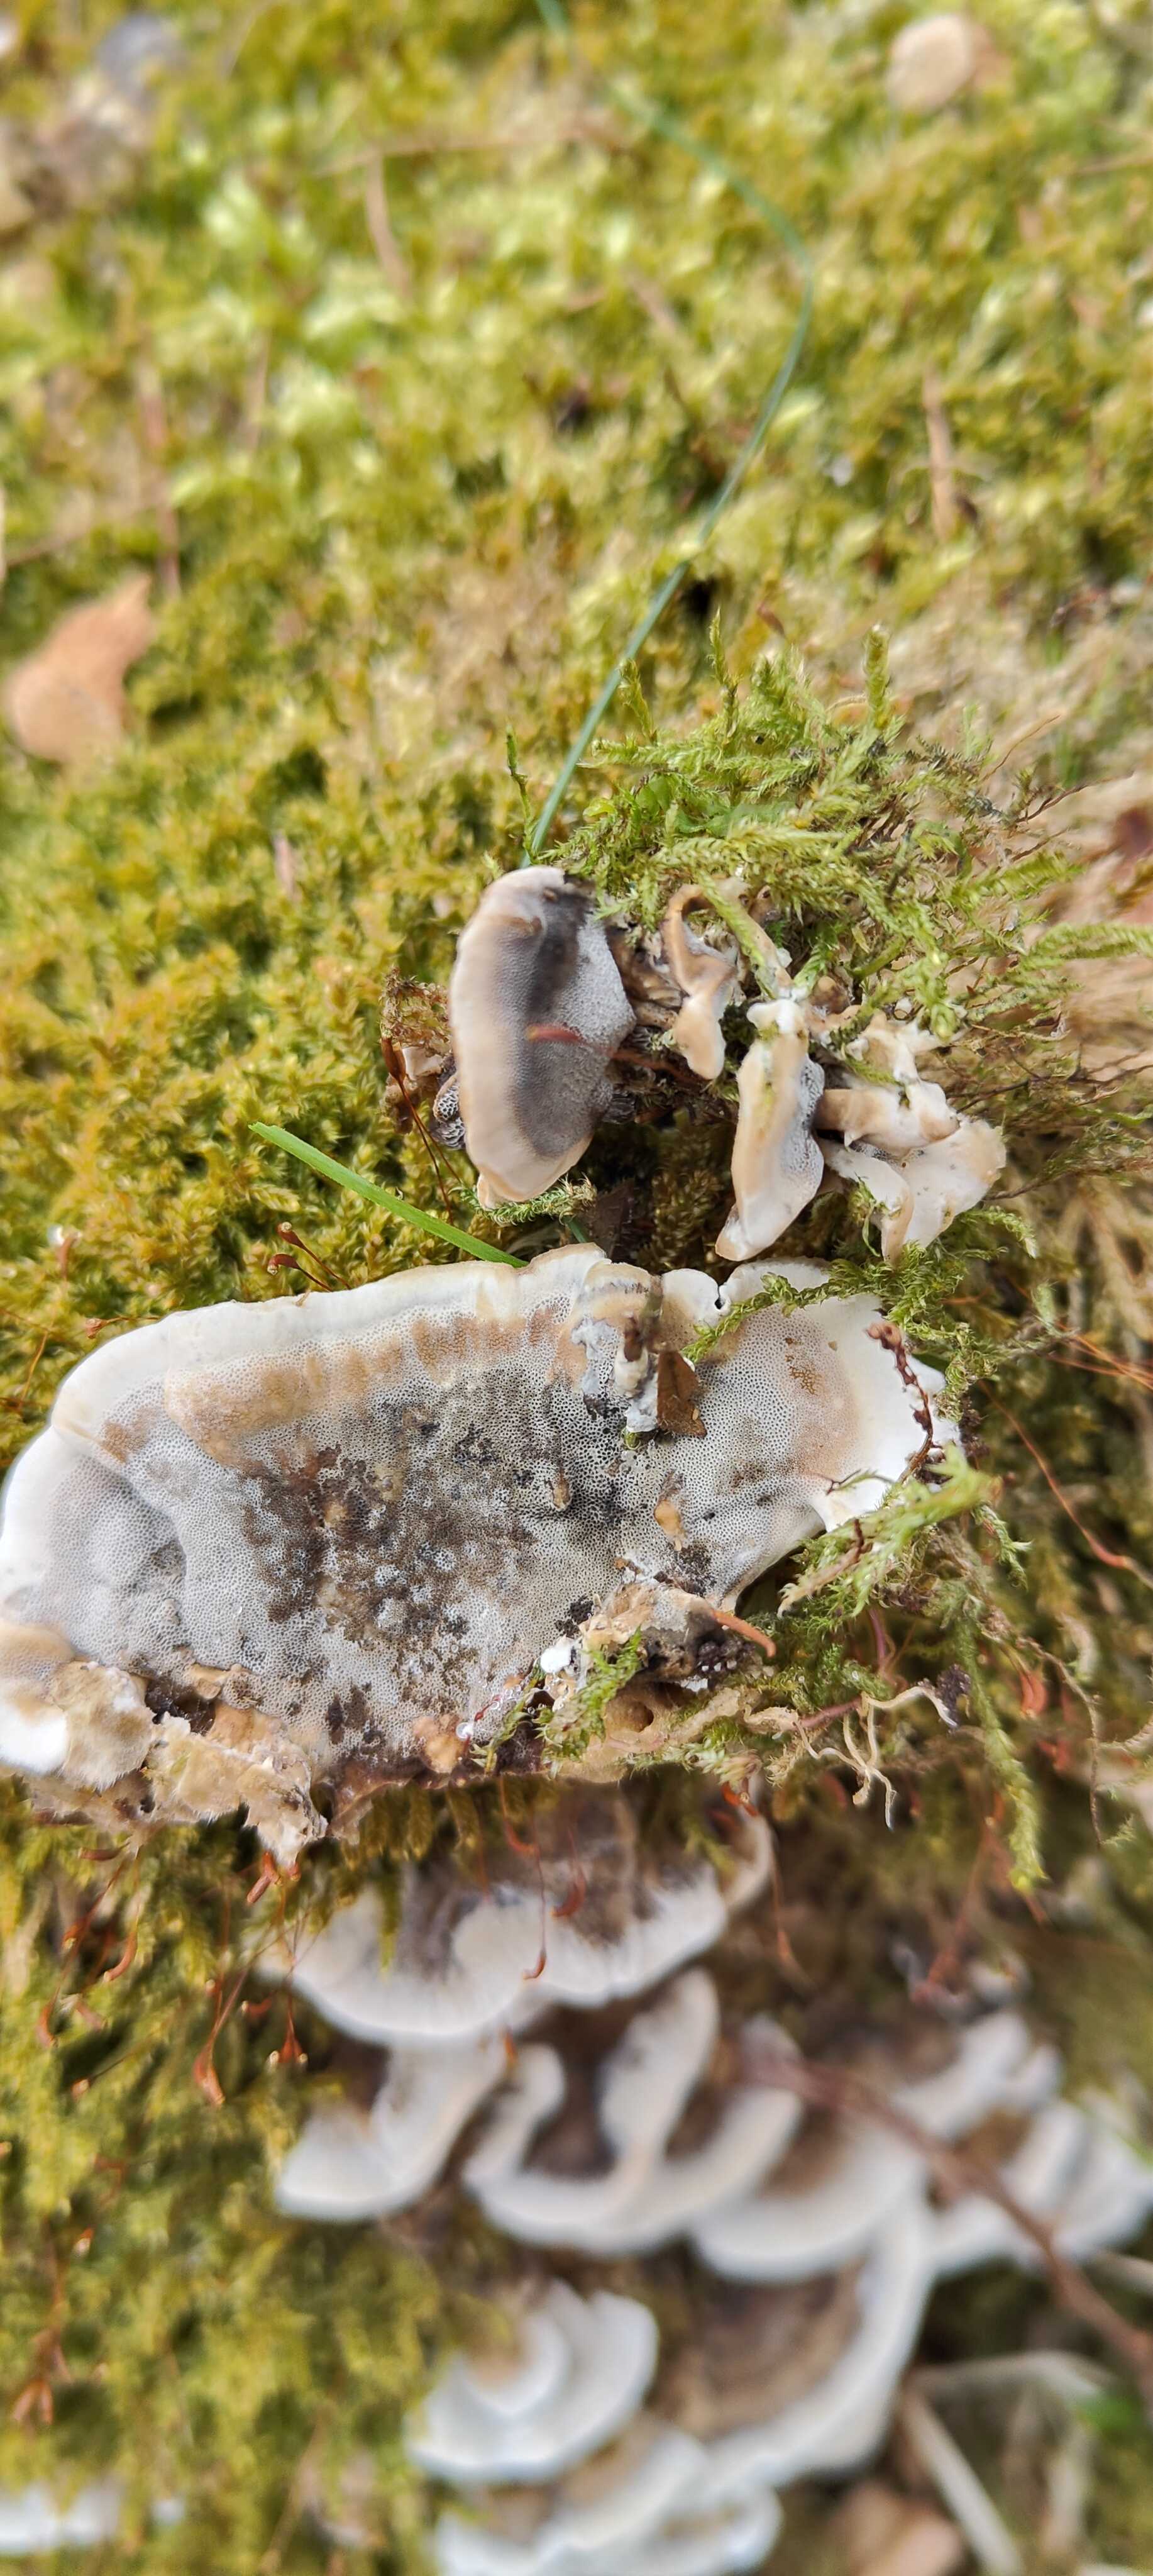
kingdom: Fungi
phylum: Basidiomycota
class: Agaricomycetes
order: Polyporales
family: Phanerochaetaceae
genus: Bjerkandera
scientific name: Bjerkandera adusta
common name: sveden sodporesvamp
